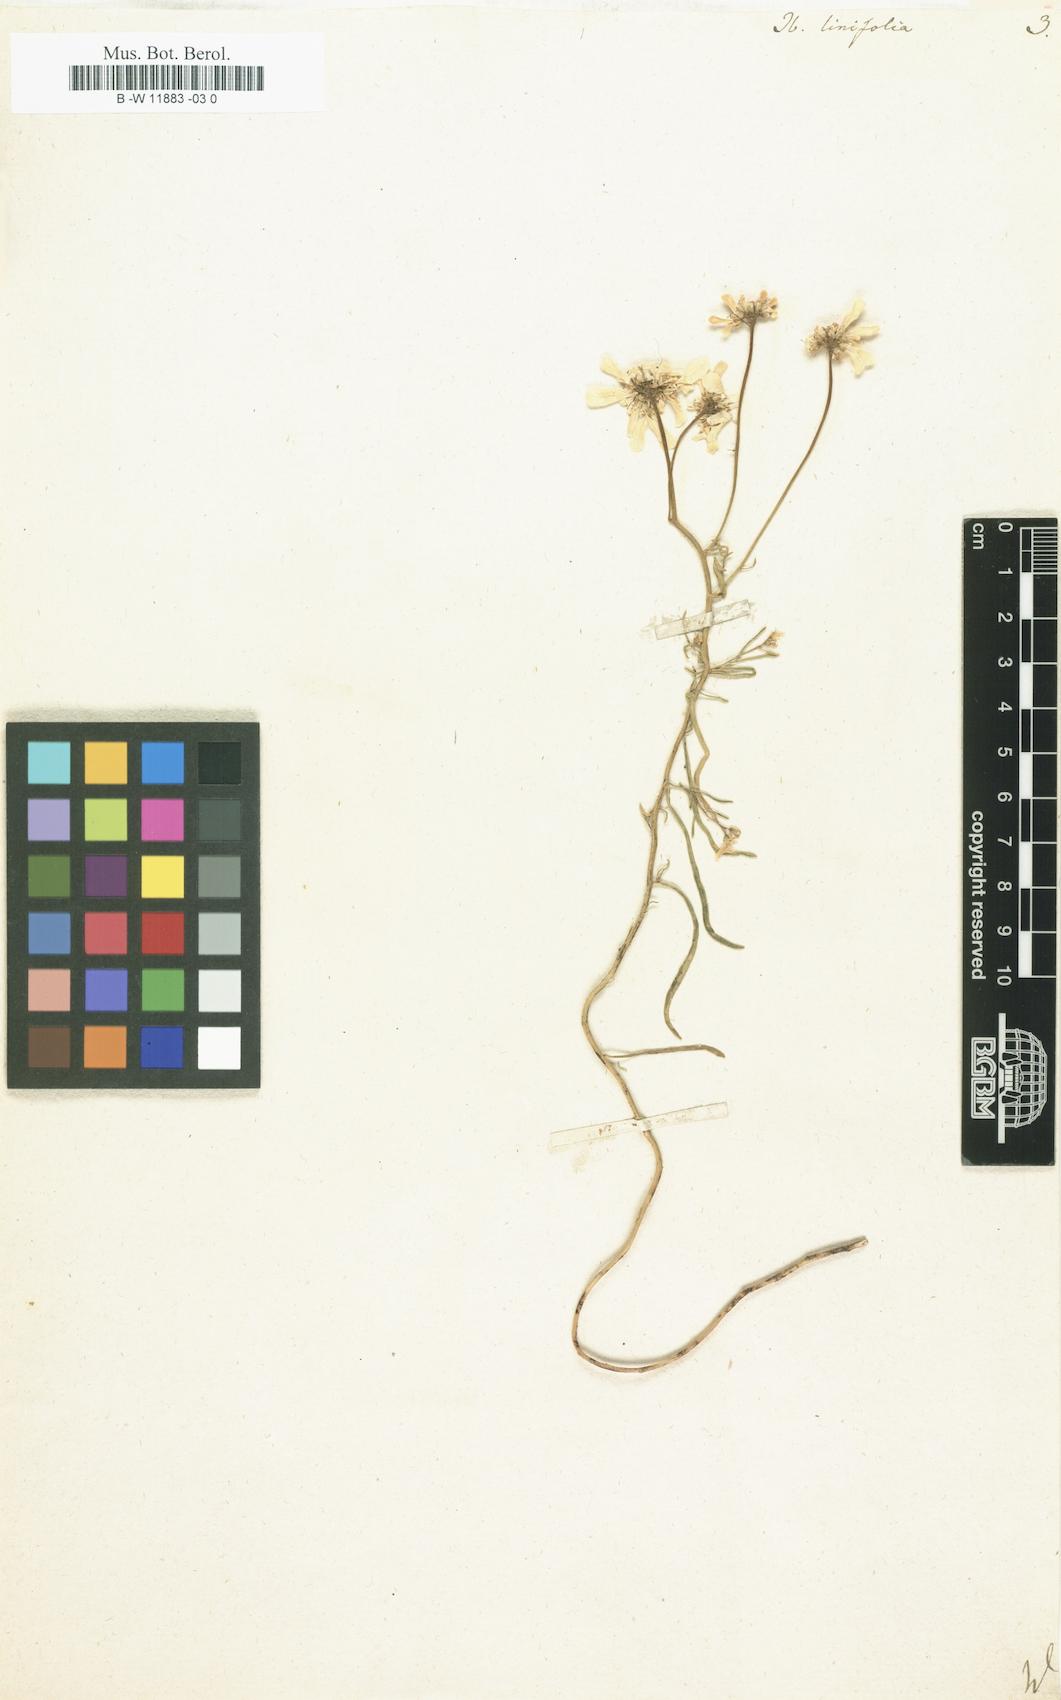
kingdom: Plantae
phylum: Tracheophyta
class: Magnoliopsida
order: Brassicales
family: Brassicaceae
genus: Lepidium
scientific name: Lepidium linifolium
